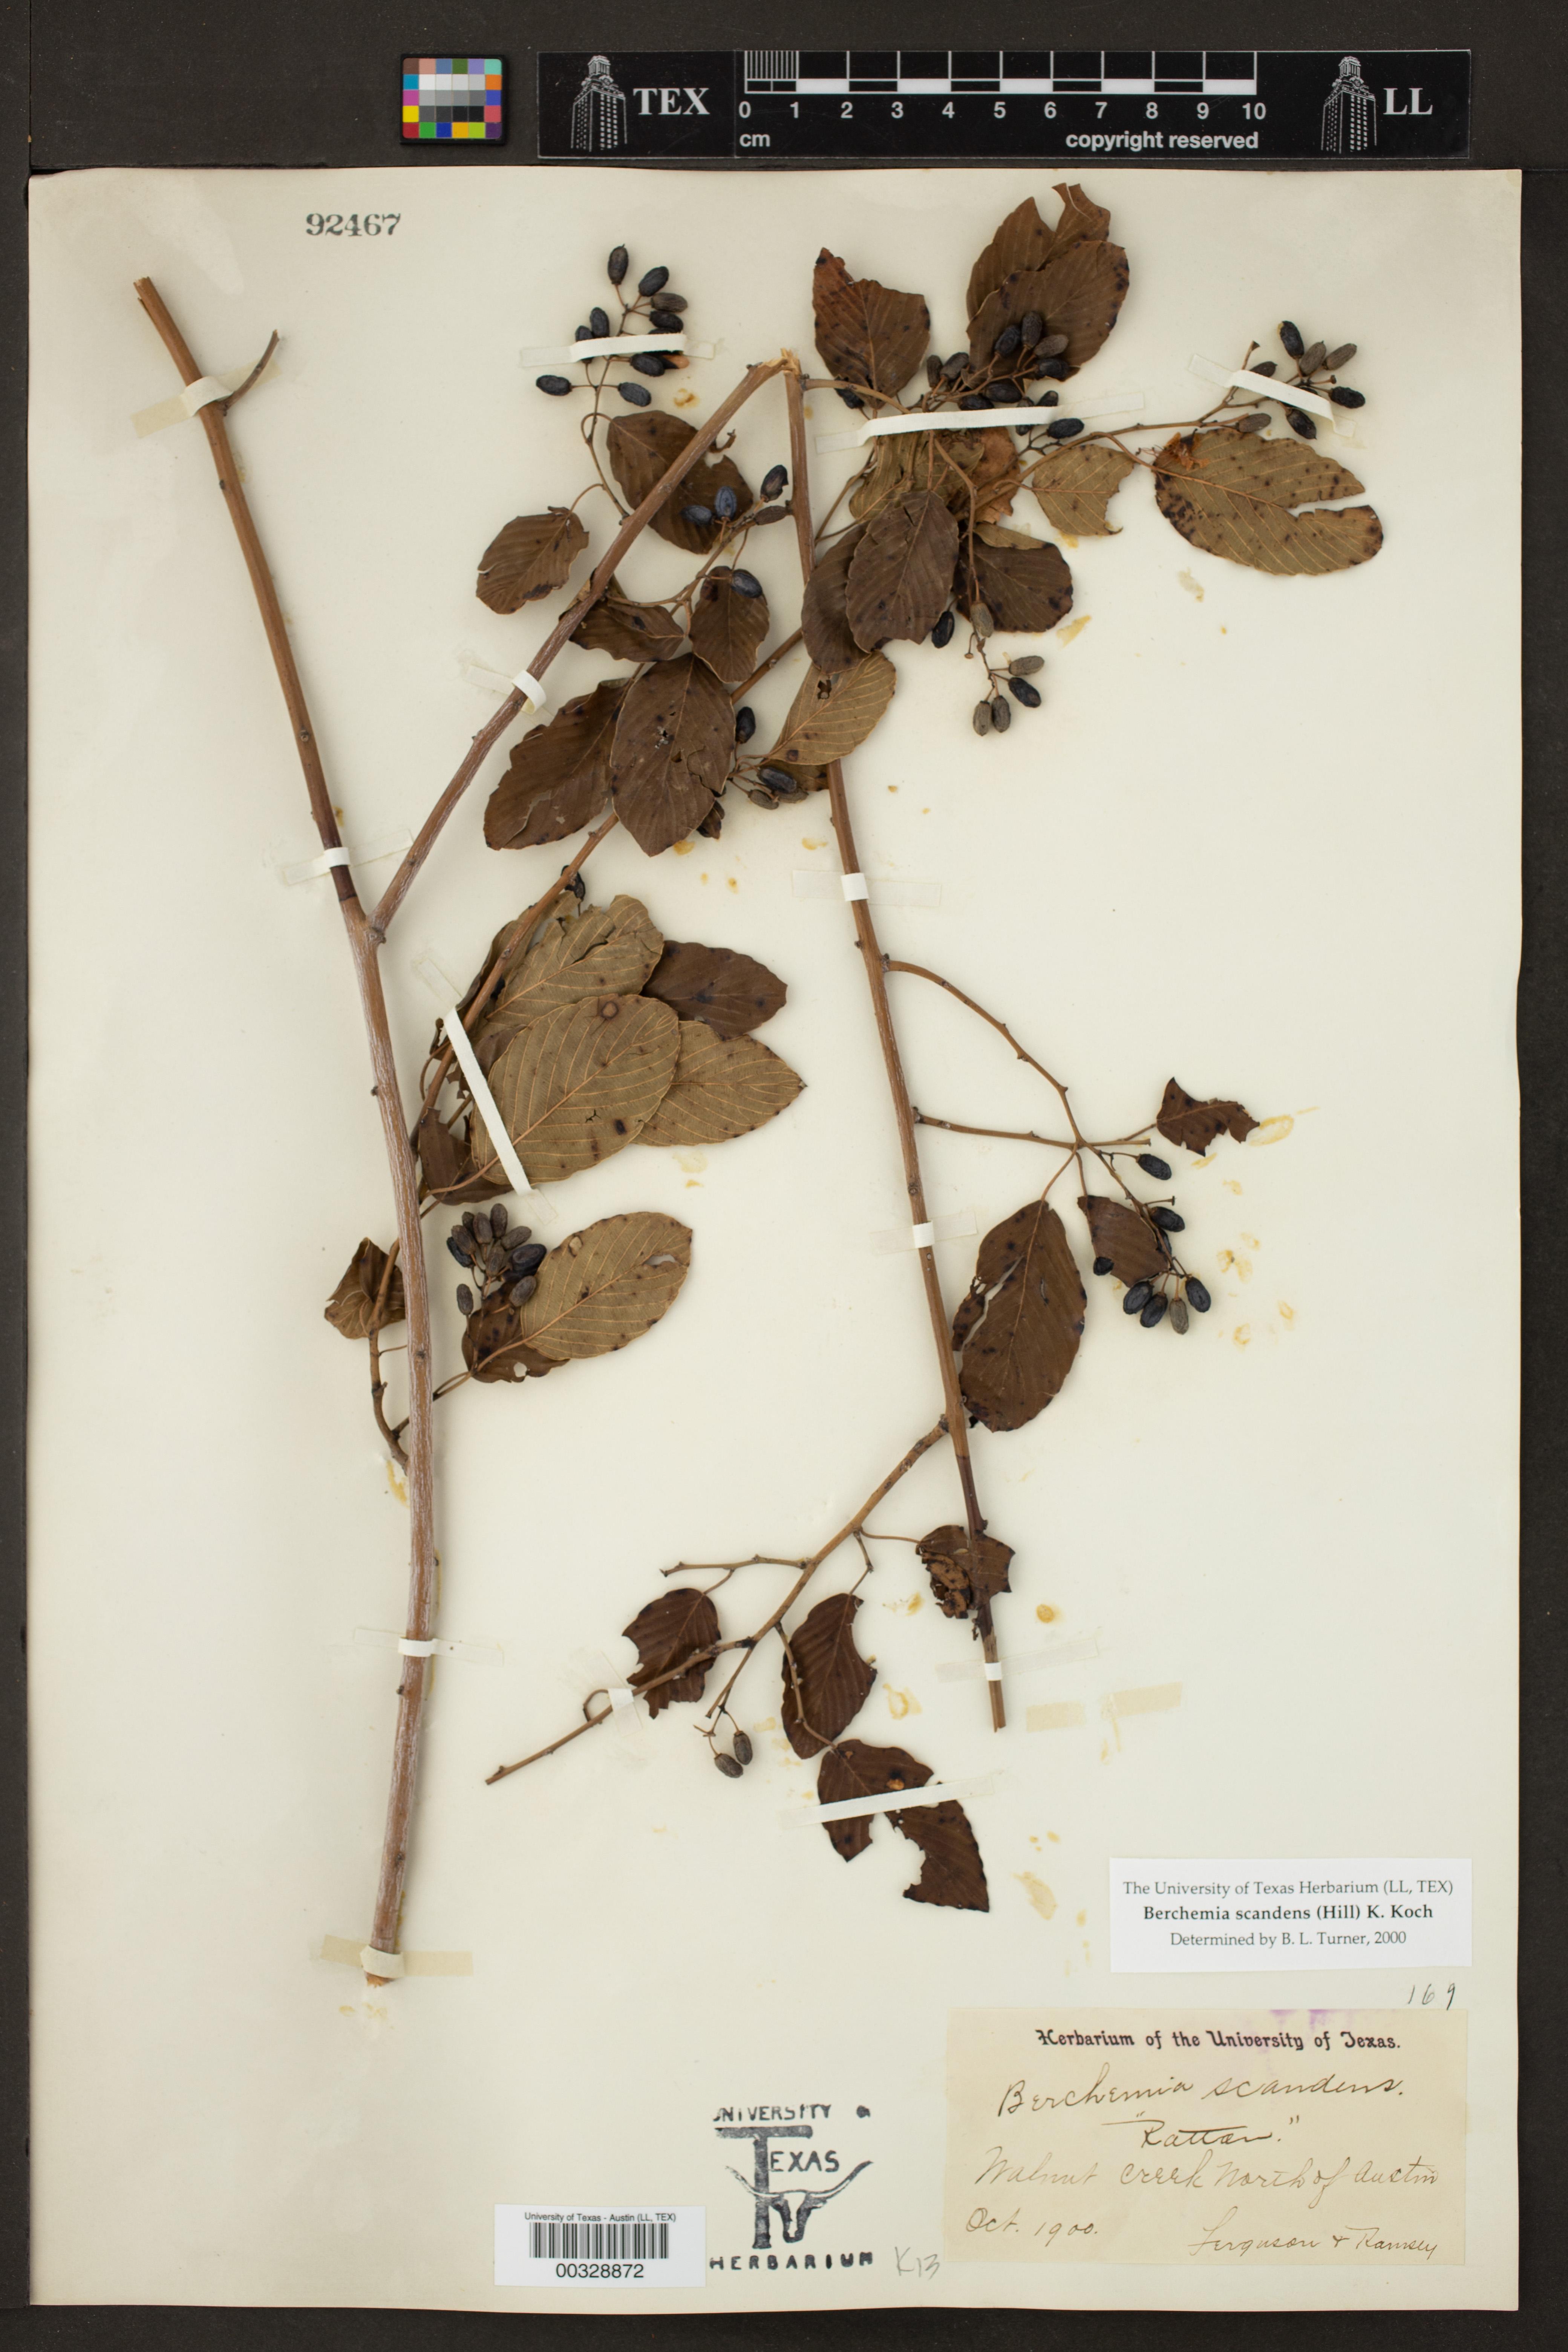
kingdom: Plantae
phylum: Tracheophyta
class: Magnoliopsida
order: Rosales
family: Rhamnaceae
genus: Berchemia
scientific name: Berchemia scandens
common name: Supplejack
